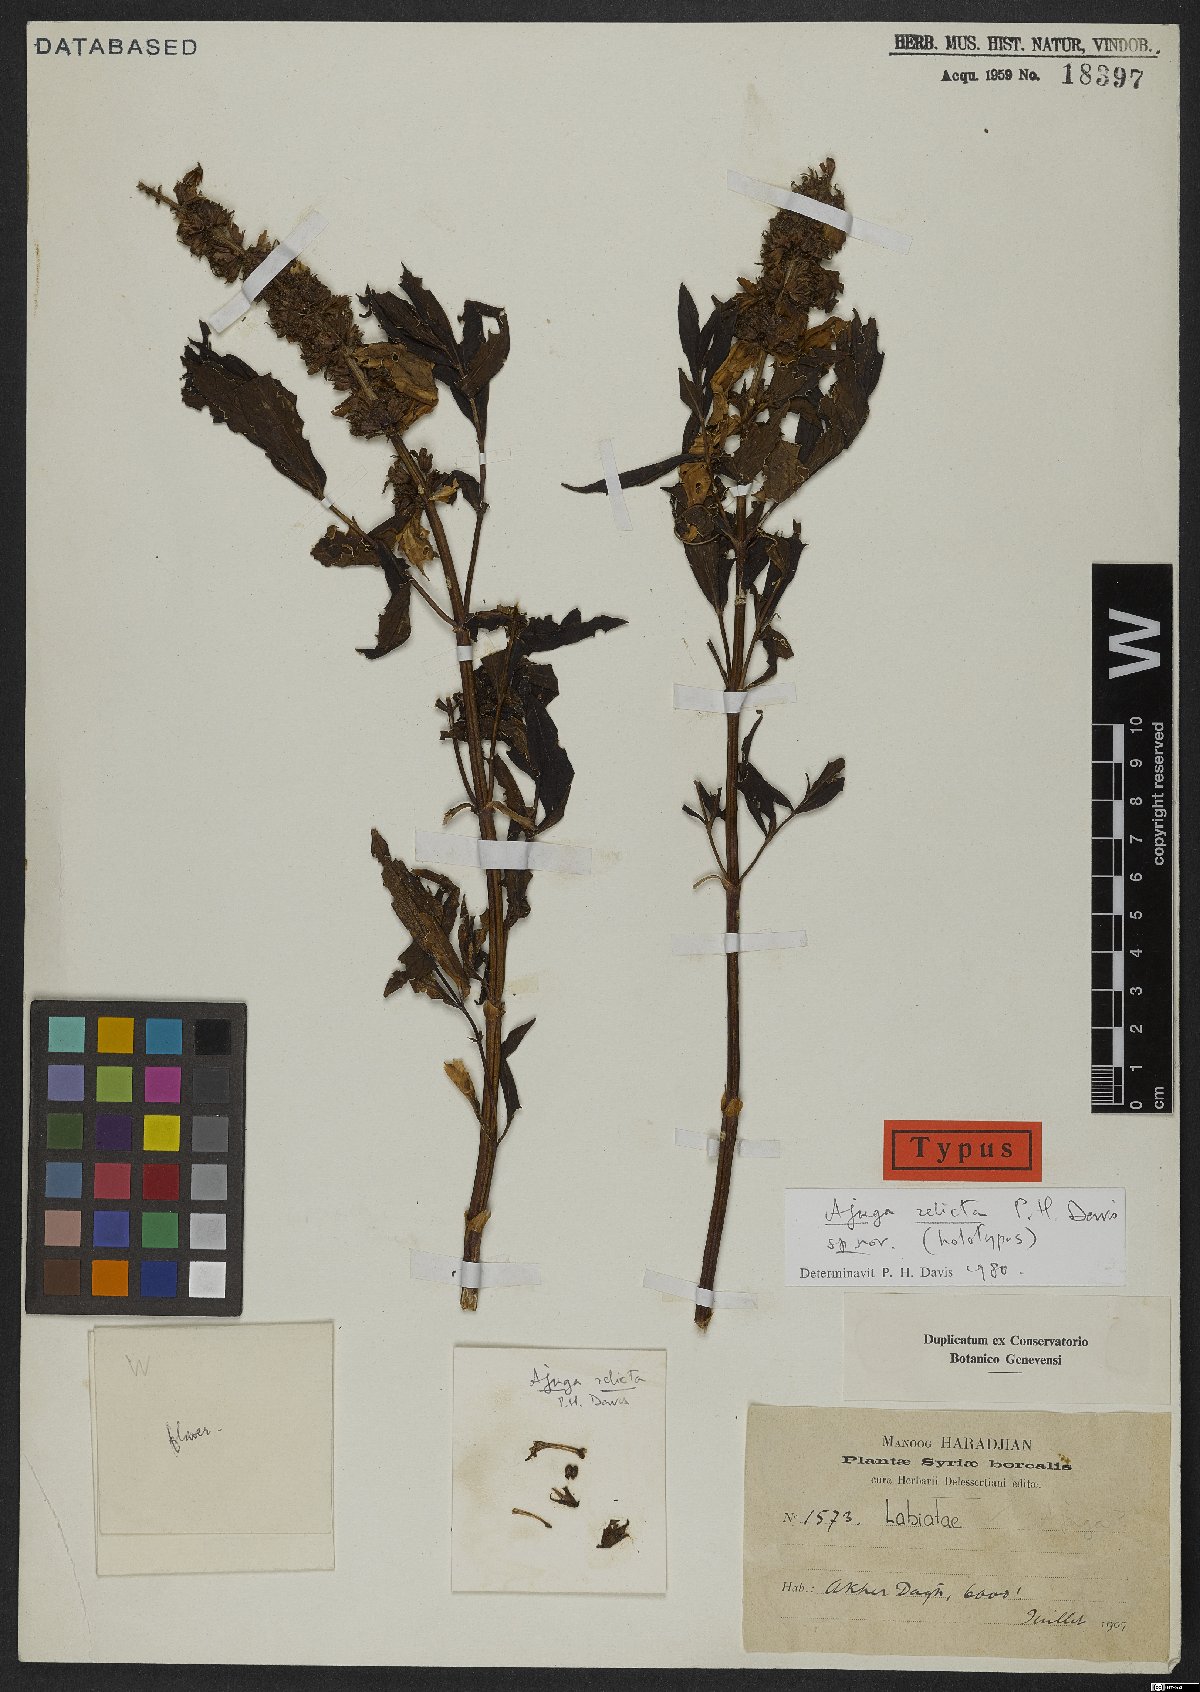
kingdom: Plantae
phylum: Tracheophyta
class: Magnoliopsida
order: Lamiales
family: Lamiaceae
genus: Ajuga
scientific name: Ajuga relicta
